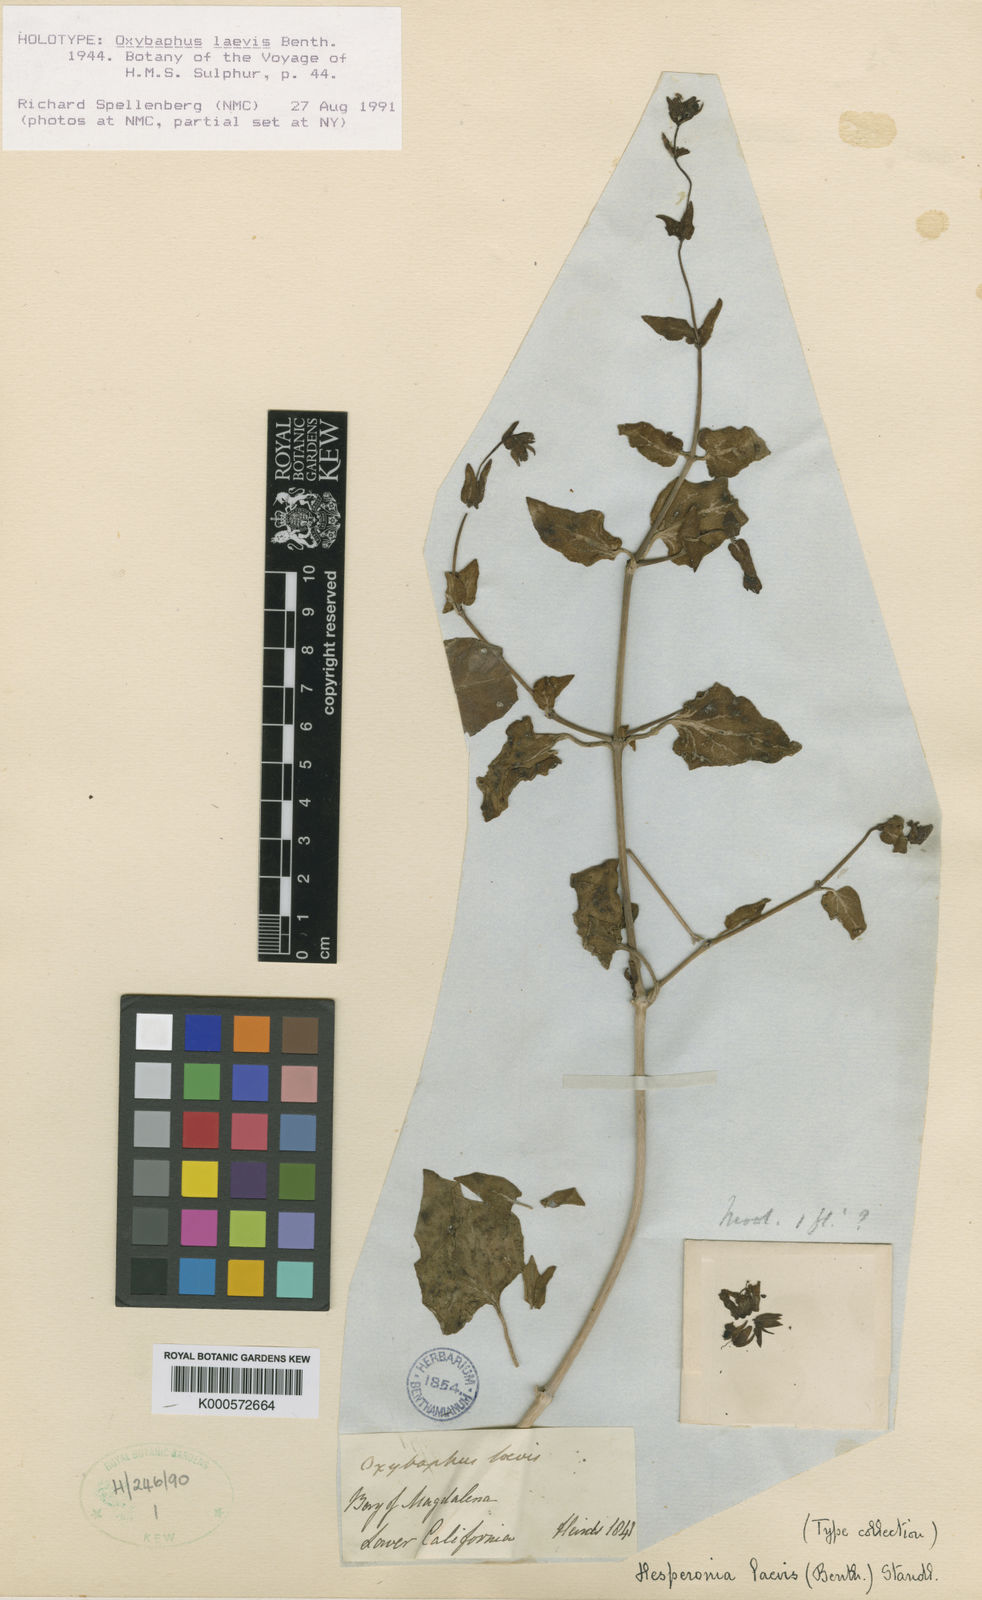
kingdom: Plantae
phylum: Tracheophyta
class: Magnoliopsida
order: Caryophyllales
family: Nyctaginaceae
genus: Mirabilis
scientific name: Mirabilis laevis
